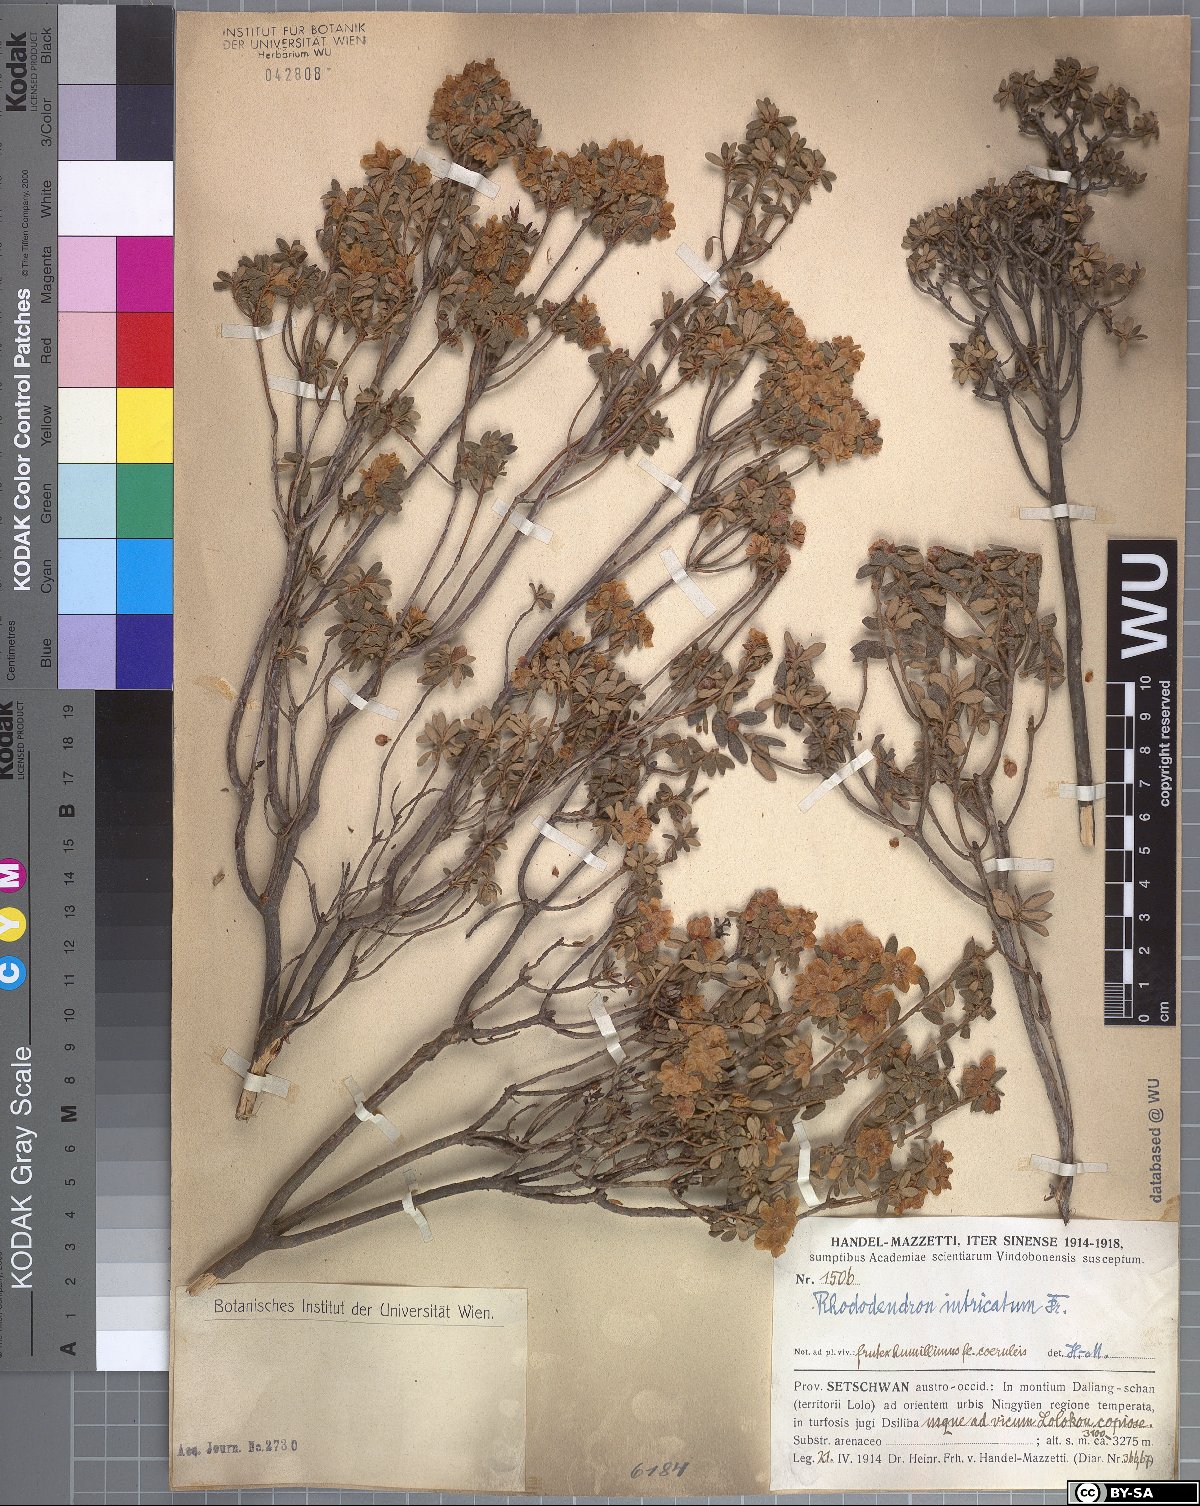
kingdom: Plantae
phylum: Tracheophyta
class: Magnoliopsida
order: Ericales
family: Ericaceae
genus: Rhododendron
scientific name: Rhododendron intricatum
